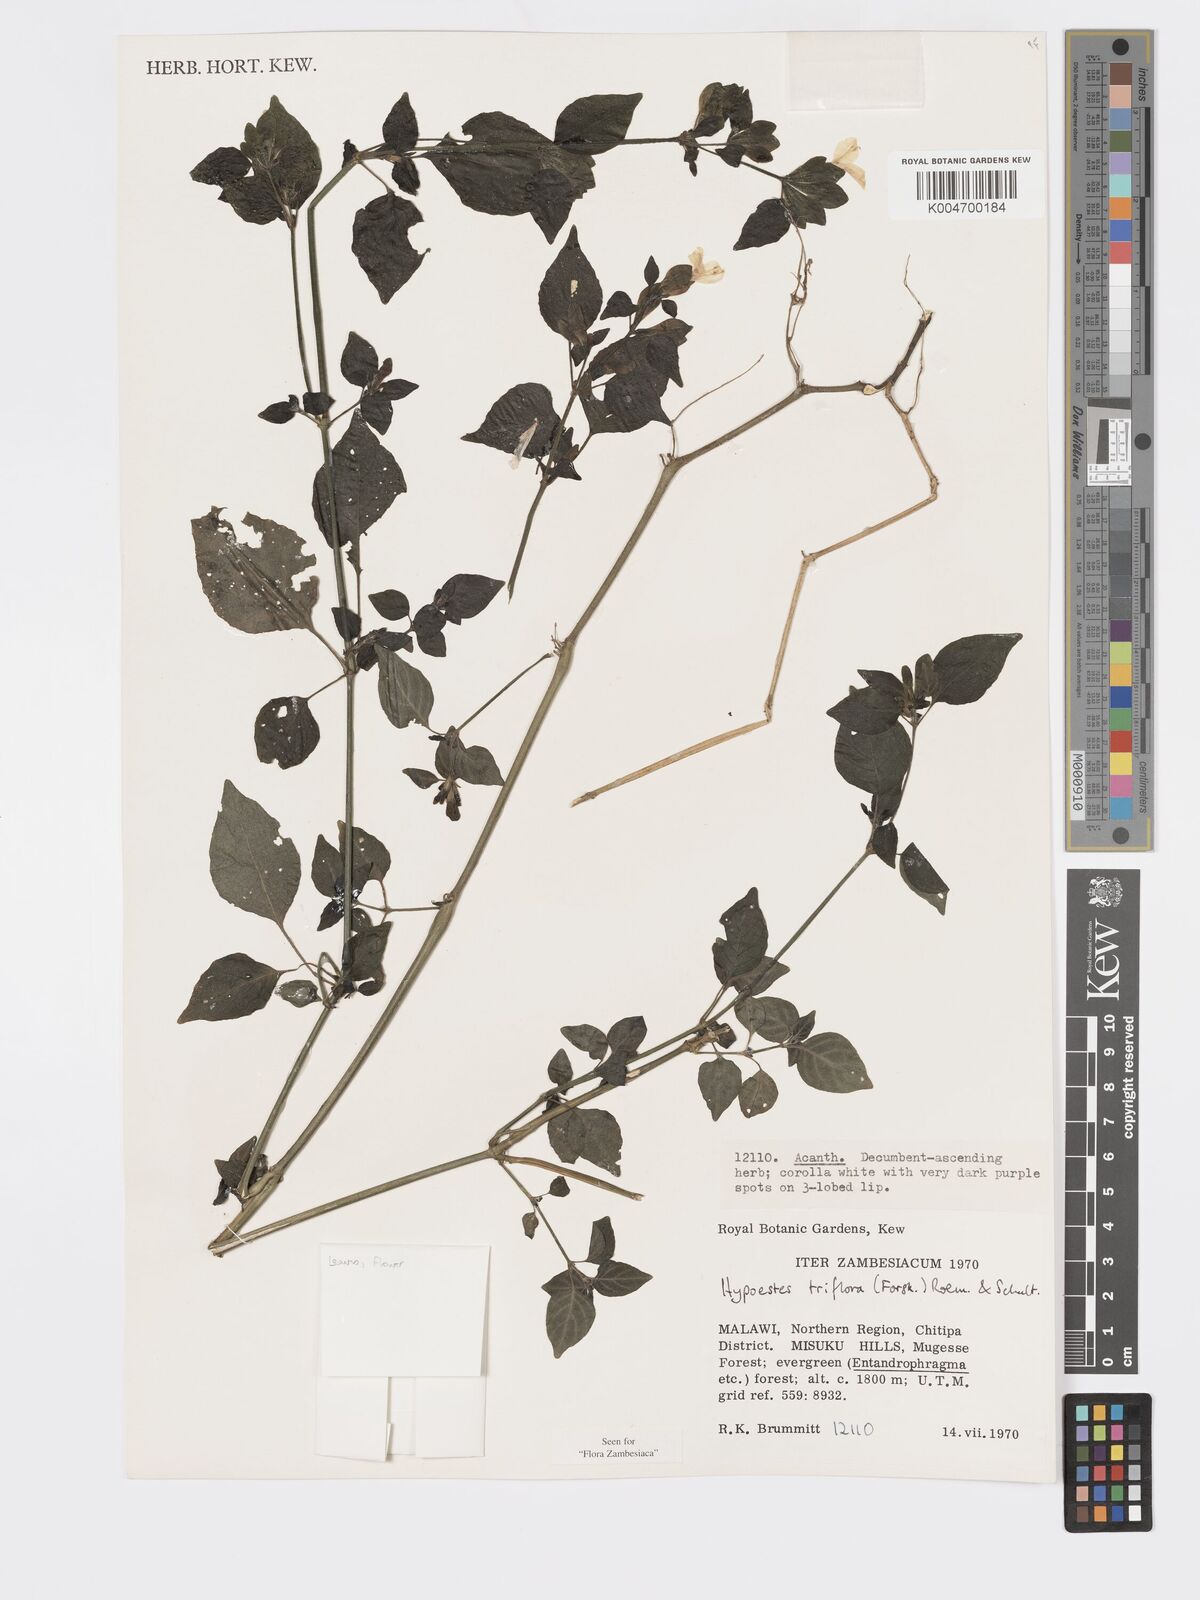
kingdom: Plantae
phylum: Tracheophyta
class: Magnoliopsida
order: Lamiales
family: Acanthaceae
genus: Hypoestes
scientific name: Hypoestes triflora
